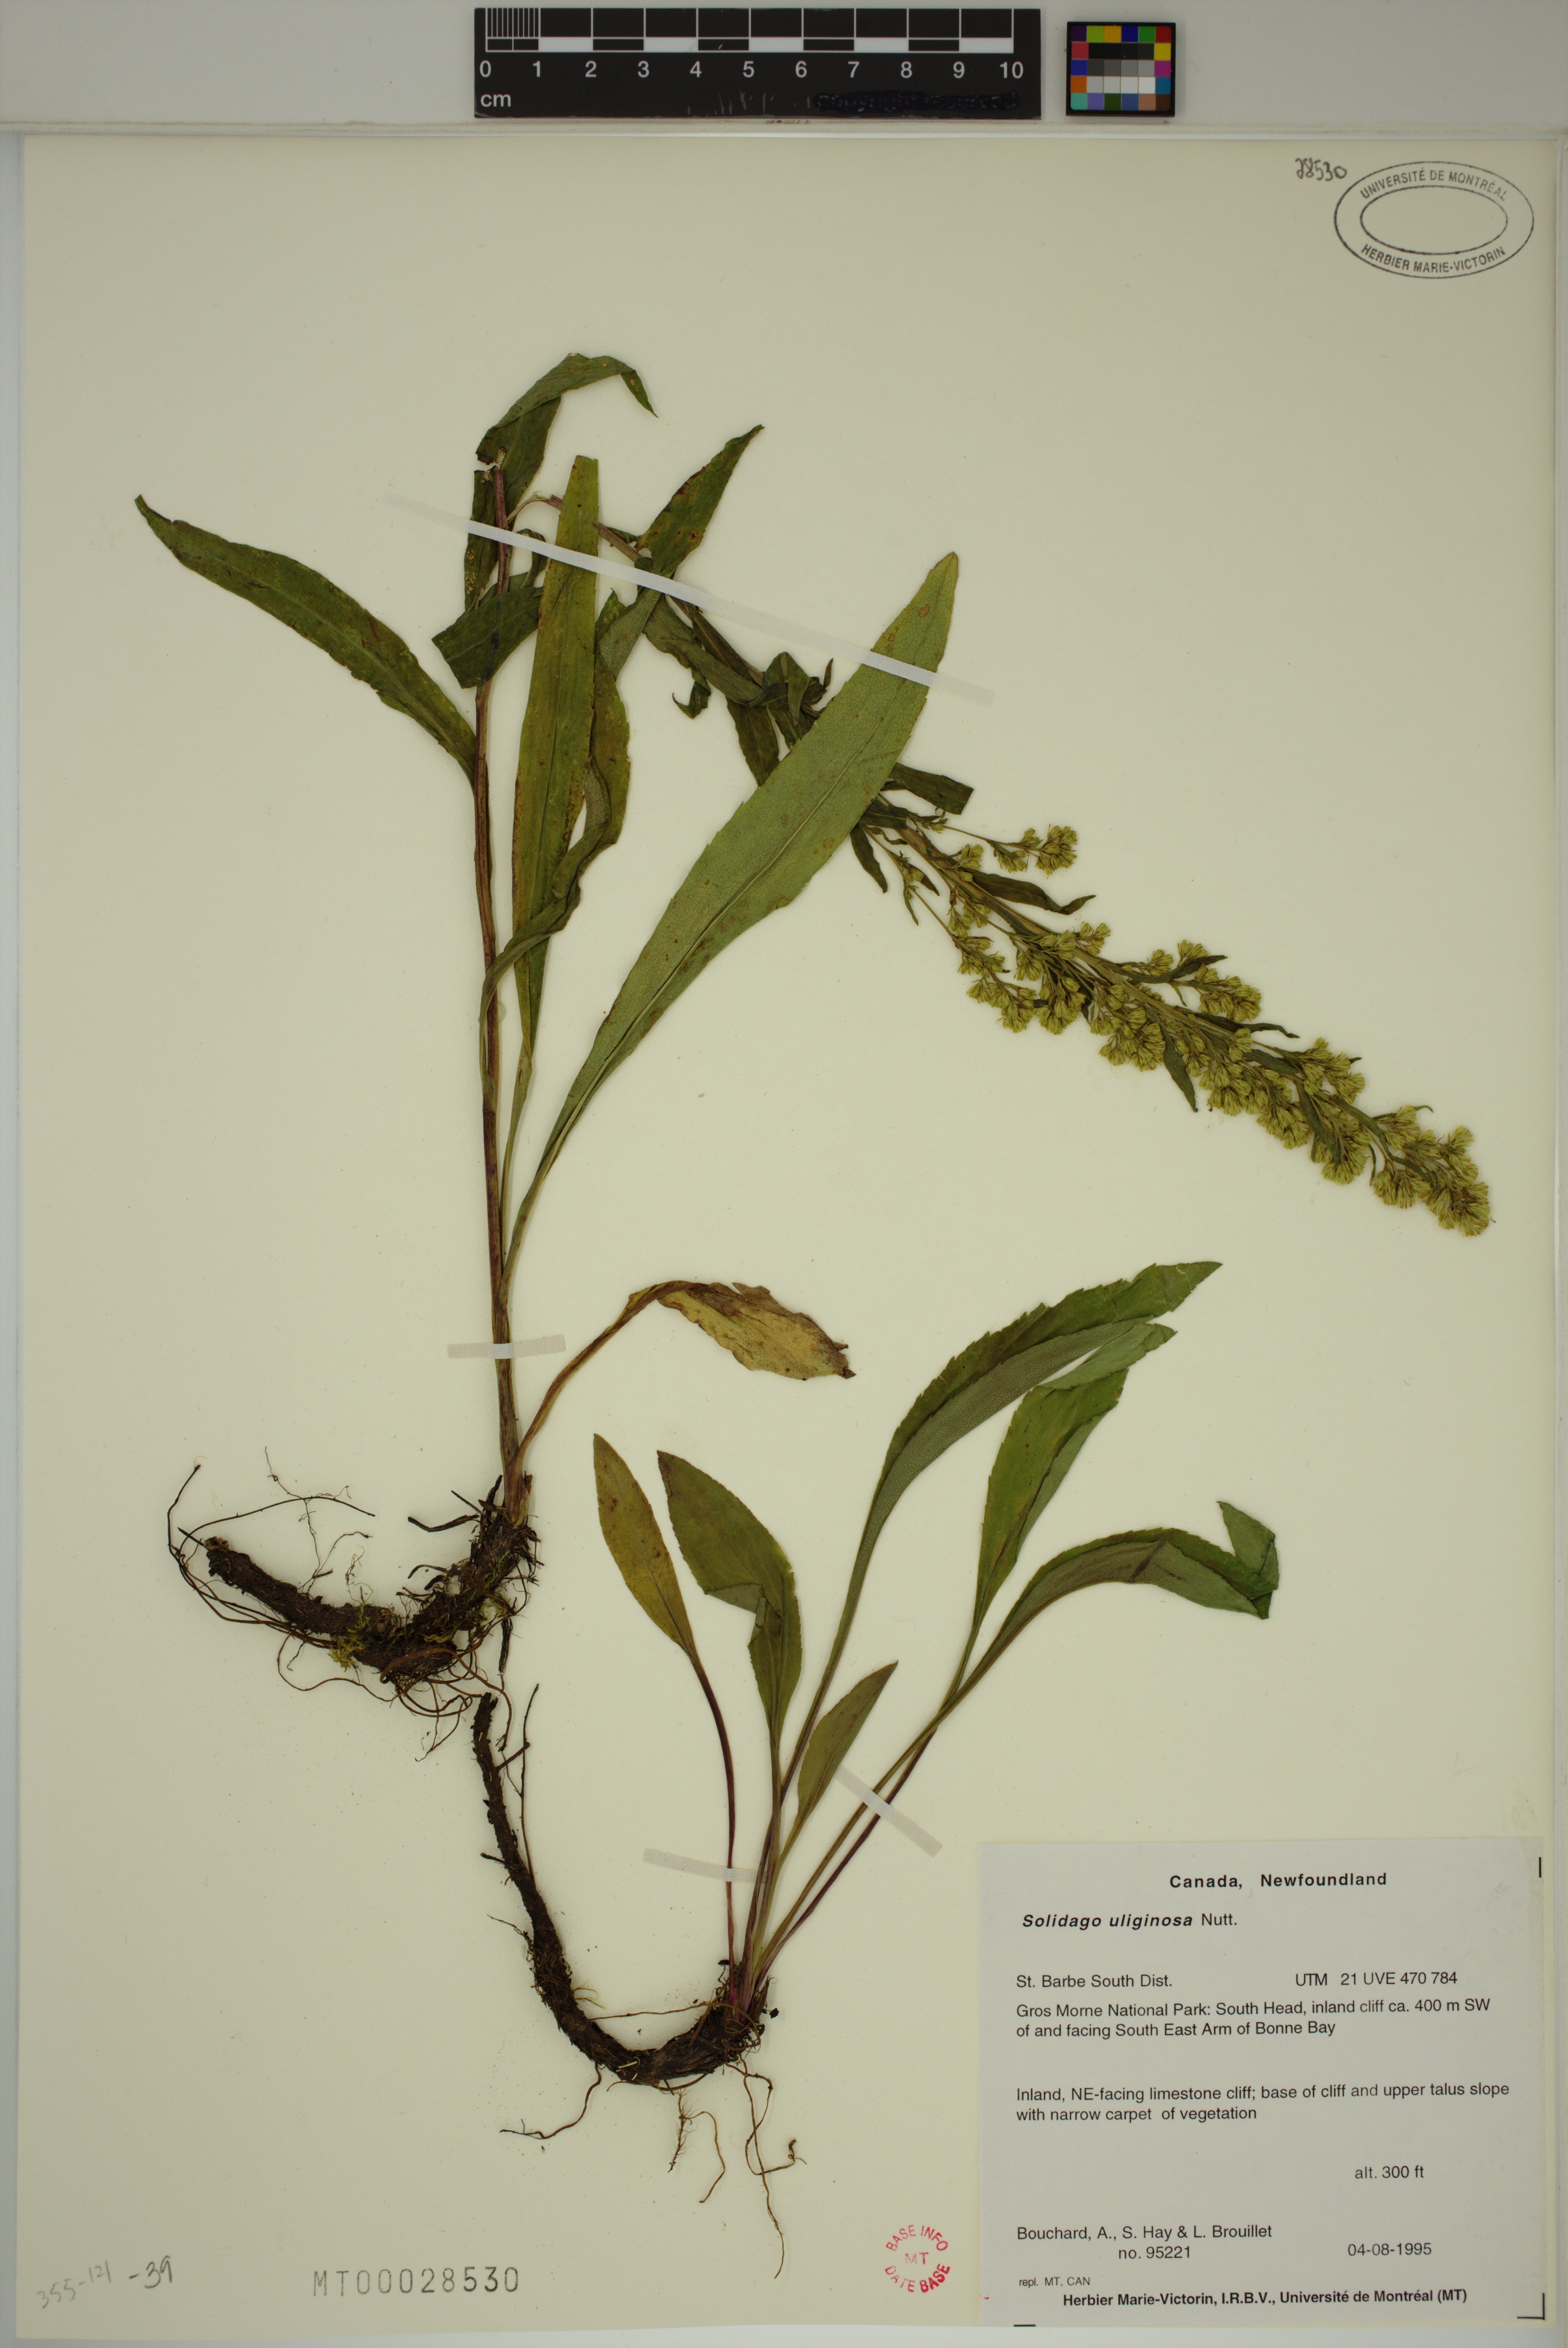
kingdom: Plantae
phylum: Tracheophyta
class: Magnoliopsida
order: Asterales
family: Asteraceae
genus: Solidago
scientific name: Solidago uliginosa
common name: Bog goldenrod
